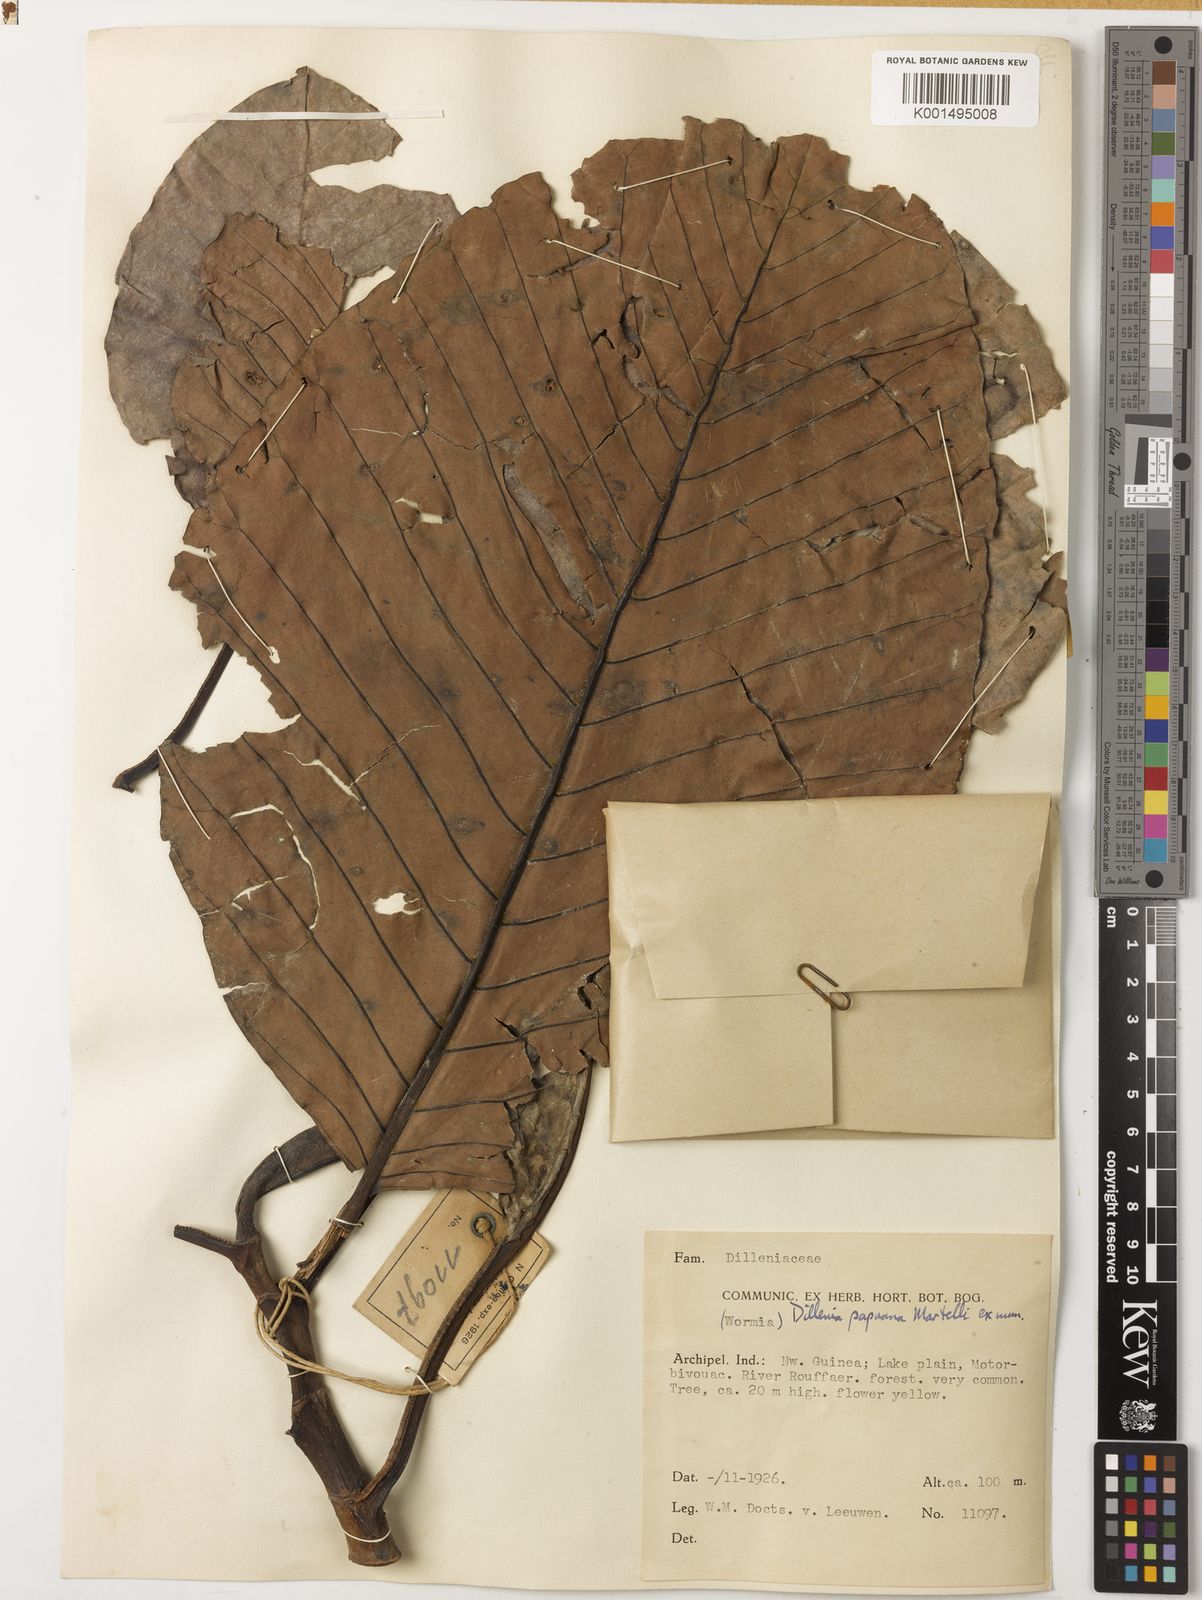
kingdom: Plantae
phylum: Tracheophyta
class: Magnoliopsida
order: Dilleniales
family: Dilleniaceae
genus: Dillenia
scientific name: Dillenia papuana
